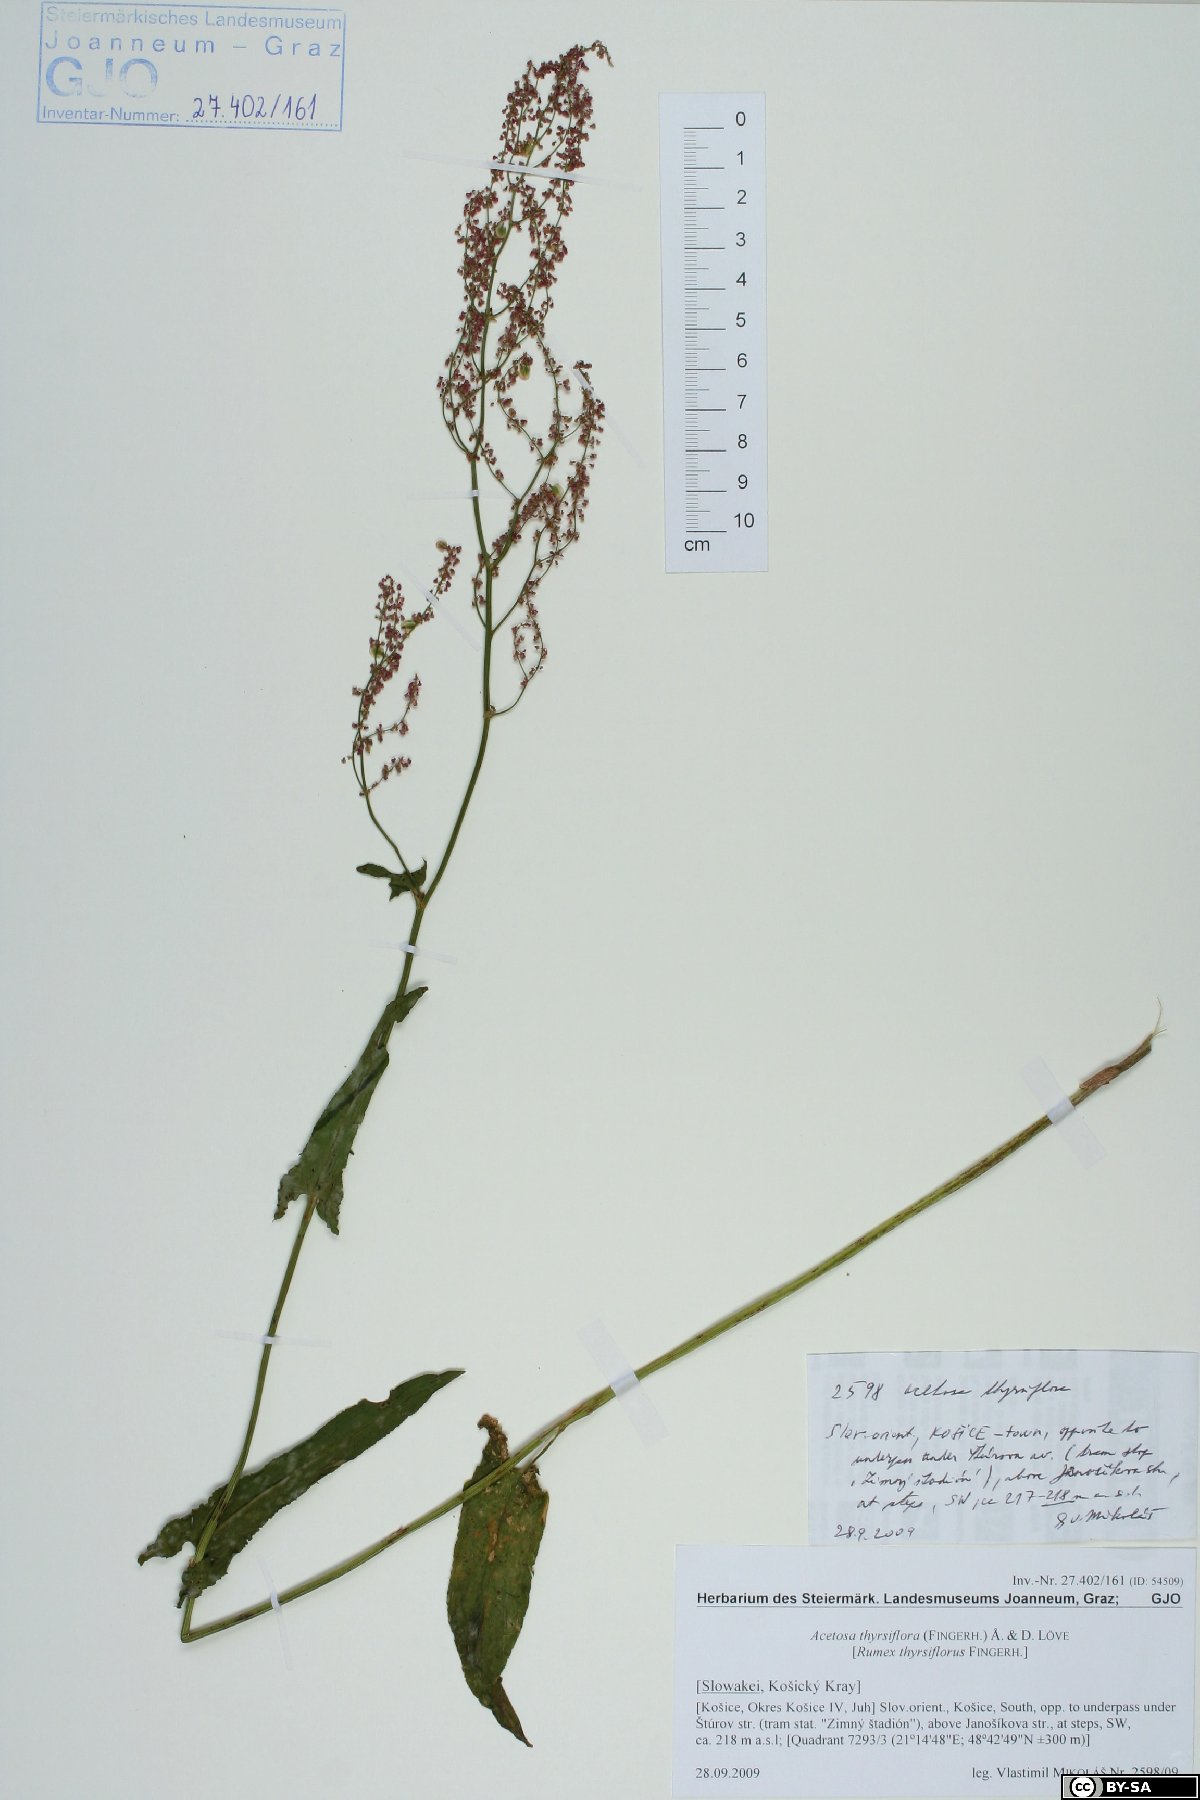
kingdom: Plantae
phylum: Tracheophyta
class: Magnoliopsida
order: Caryophyllales
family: Polygonaceae
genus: Rumex
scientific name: Rumex thyrsiflorus
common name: Garden sorrel
